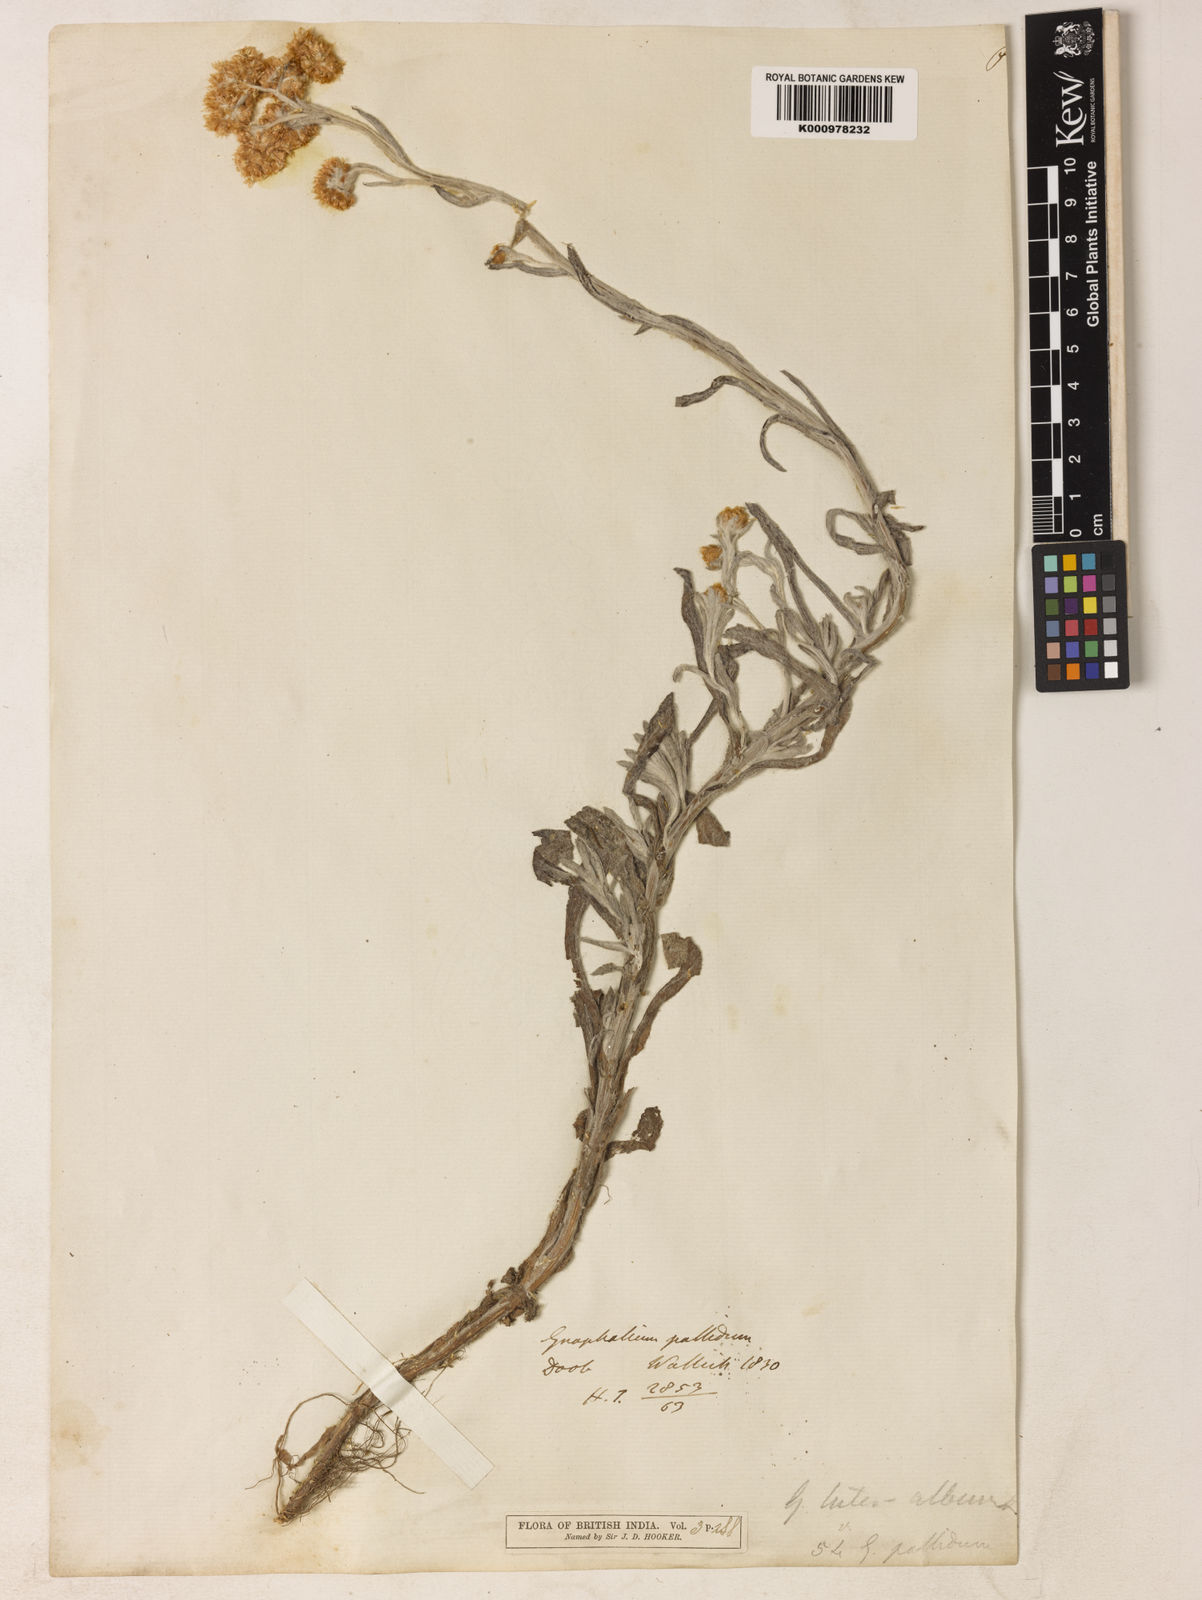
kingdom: Plantae
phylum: Tracheophyta
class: Magnoliopsida
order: Asterales
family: Asteraceae
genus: Helichrysum
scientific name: Helichrysum luteoalbum
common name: Daisy
